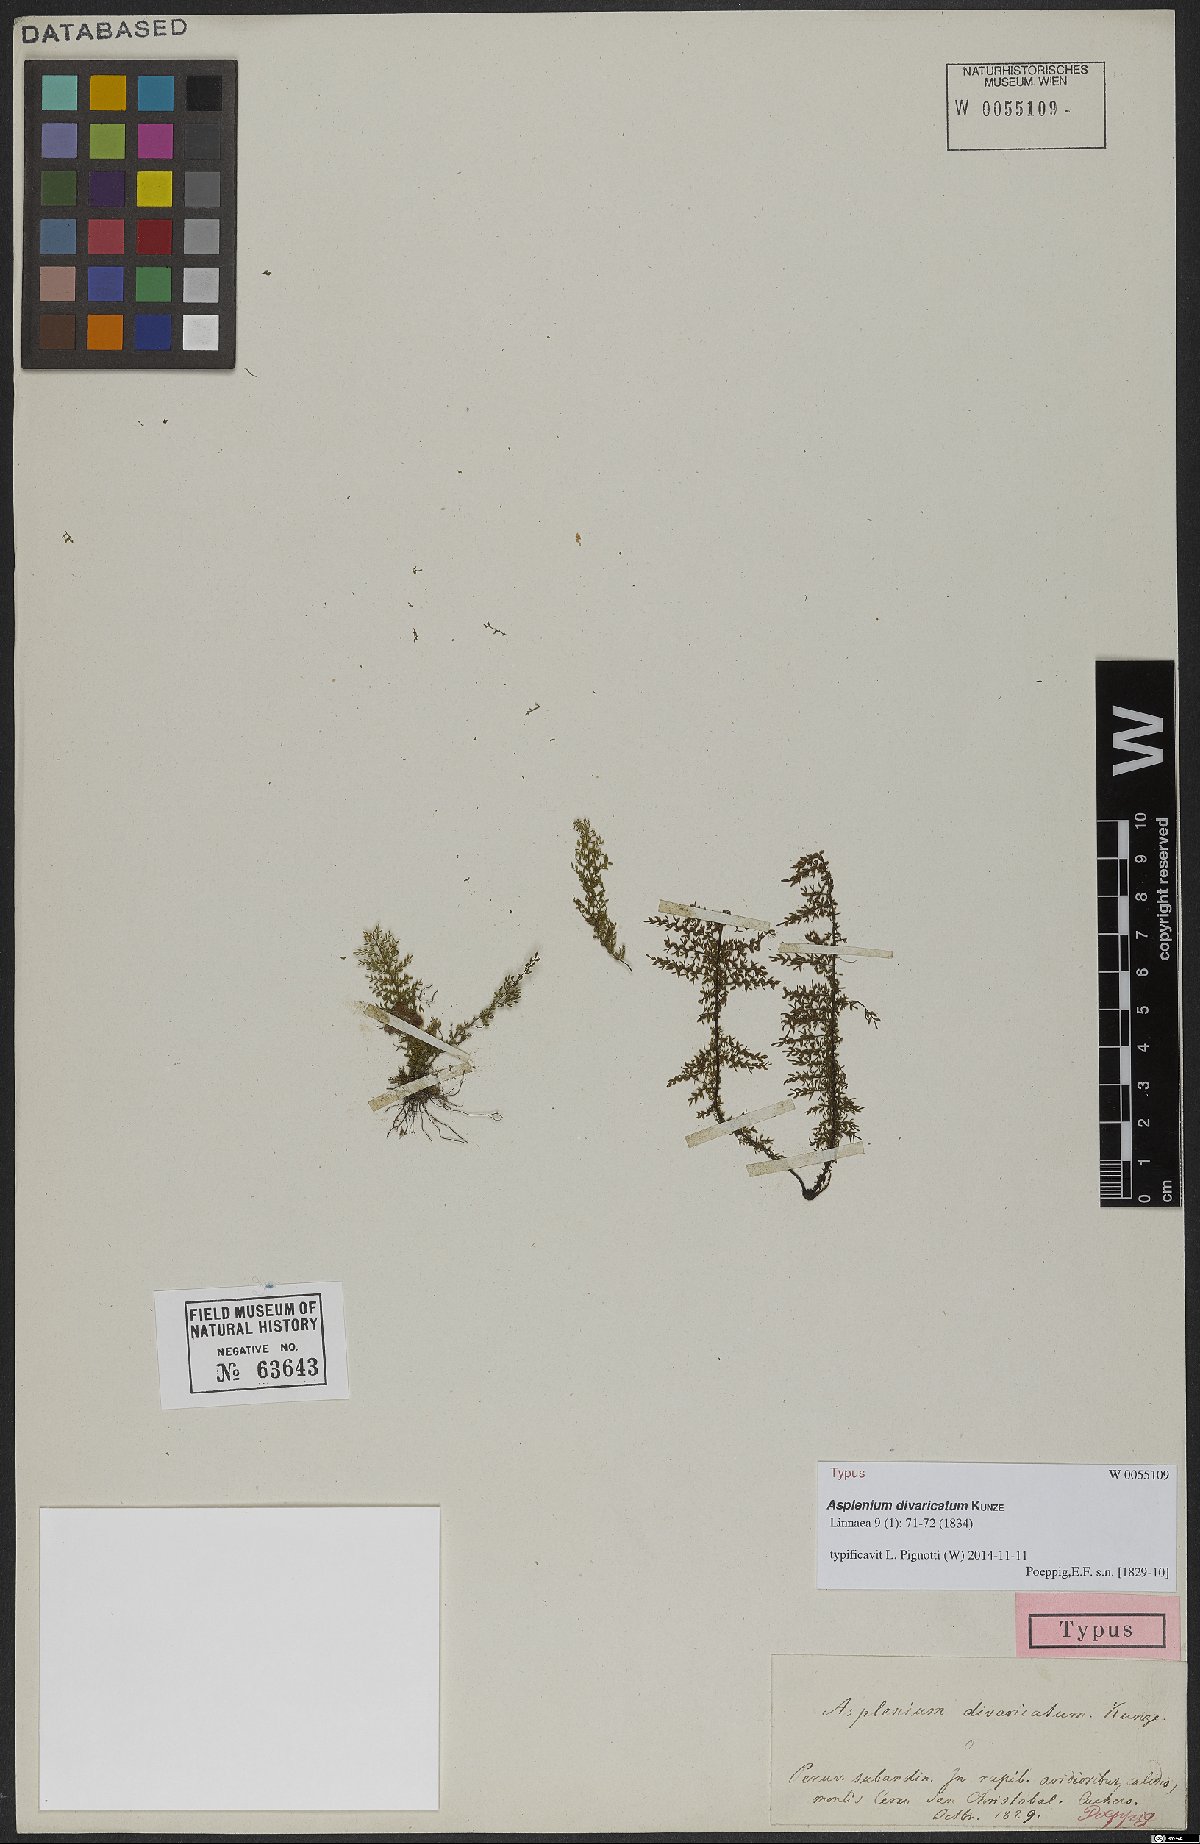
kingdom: Plantae
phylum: Tracheophyta
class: Polypodiopsida
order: Polypodiales
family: Aspleniaceae
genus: Asplenium
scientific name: Asplenium divaricatum
